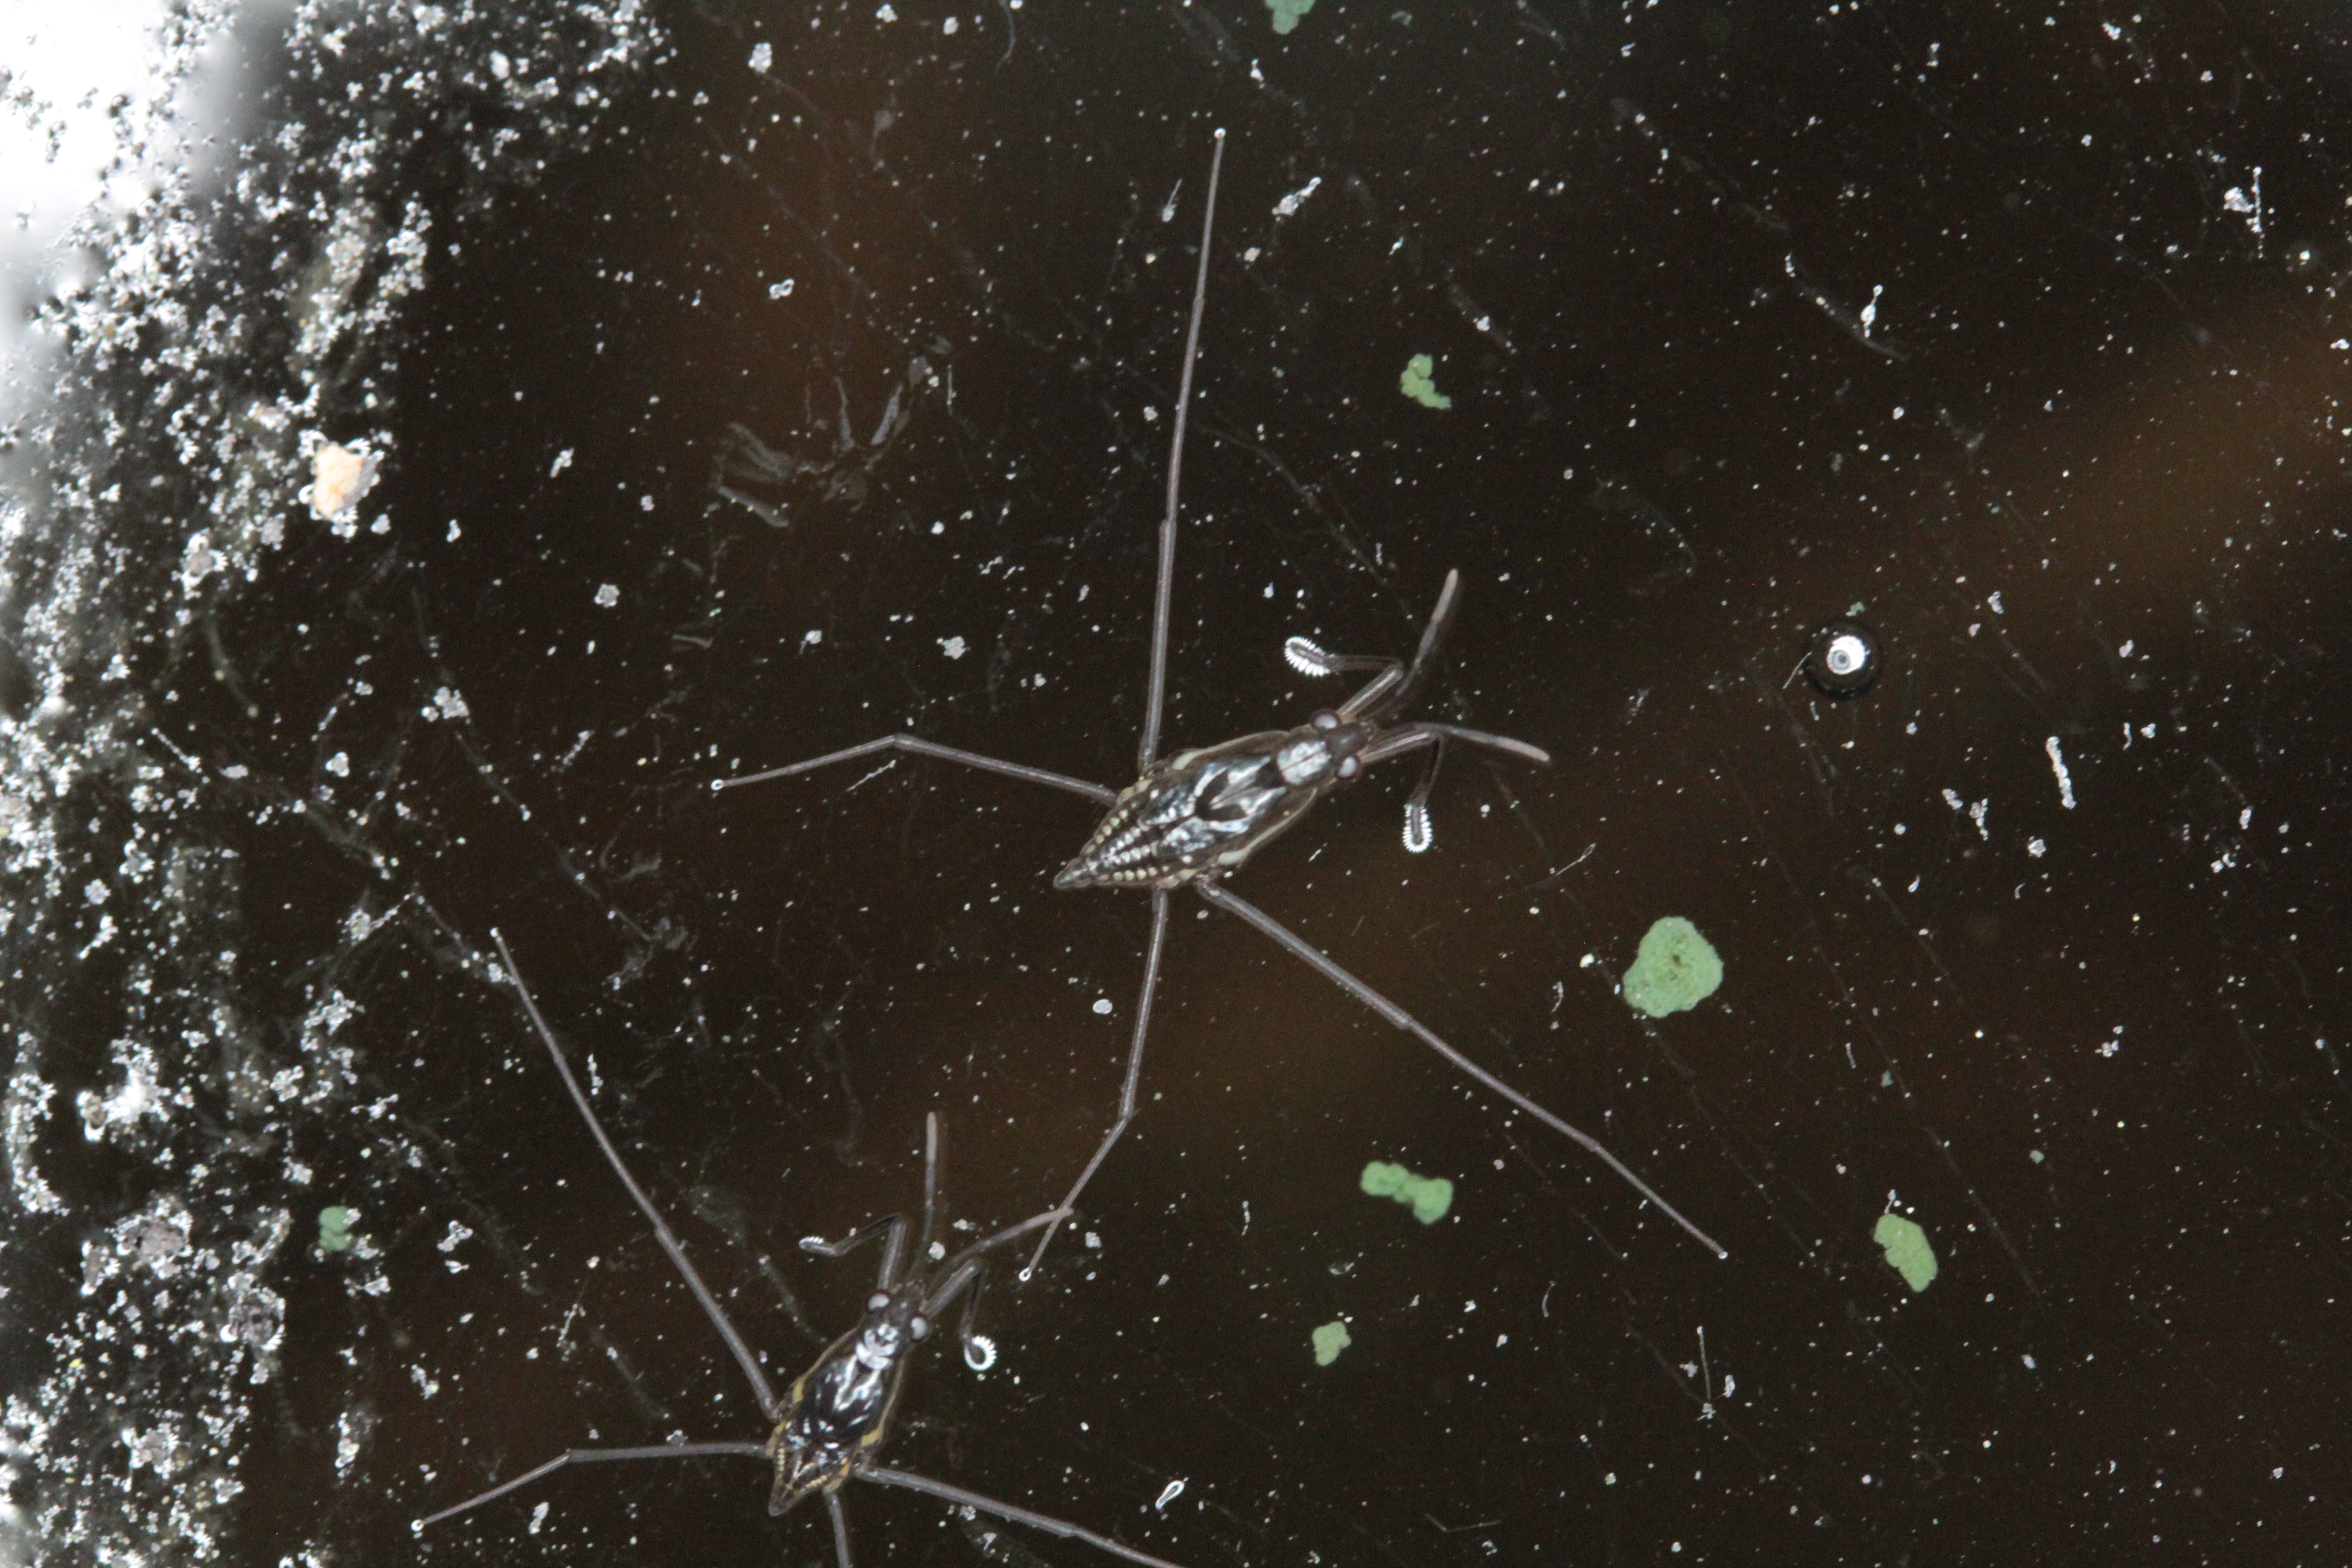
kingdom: Animalia
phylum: Arthropoda
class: Insecta
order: Hemiptera
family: Gerridae
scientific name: Gerridae
